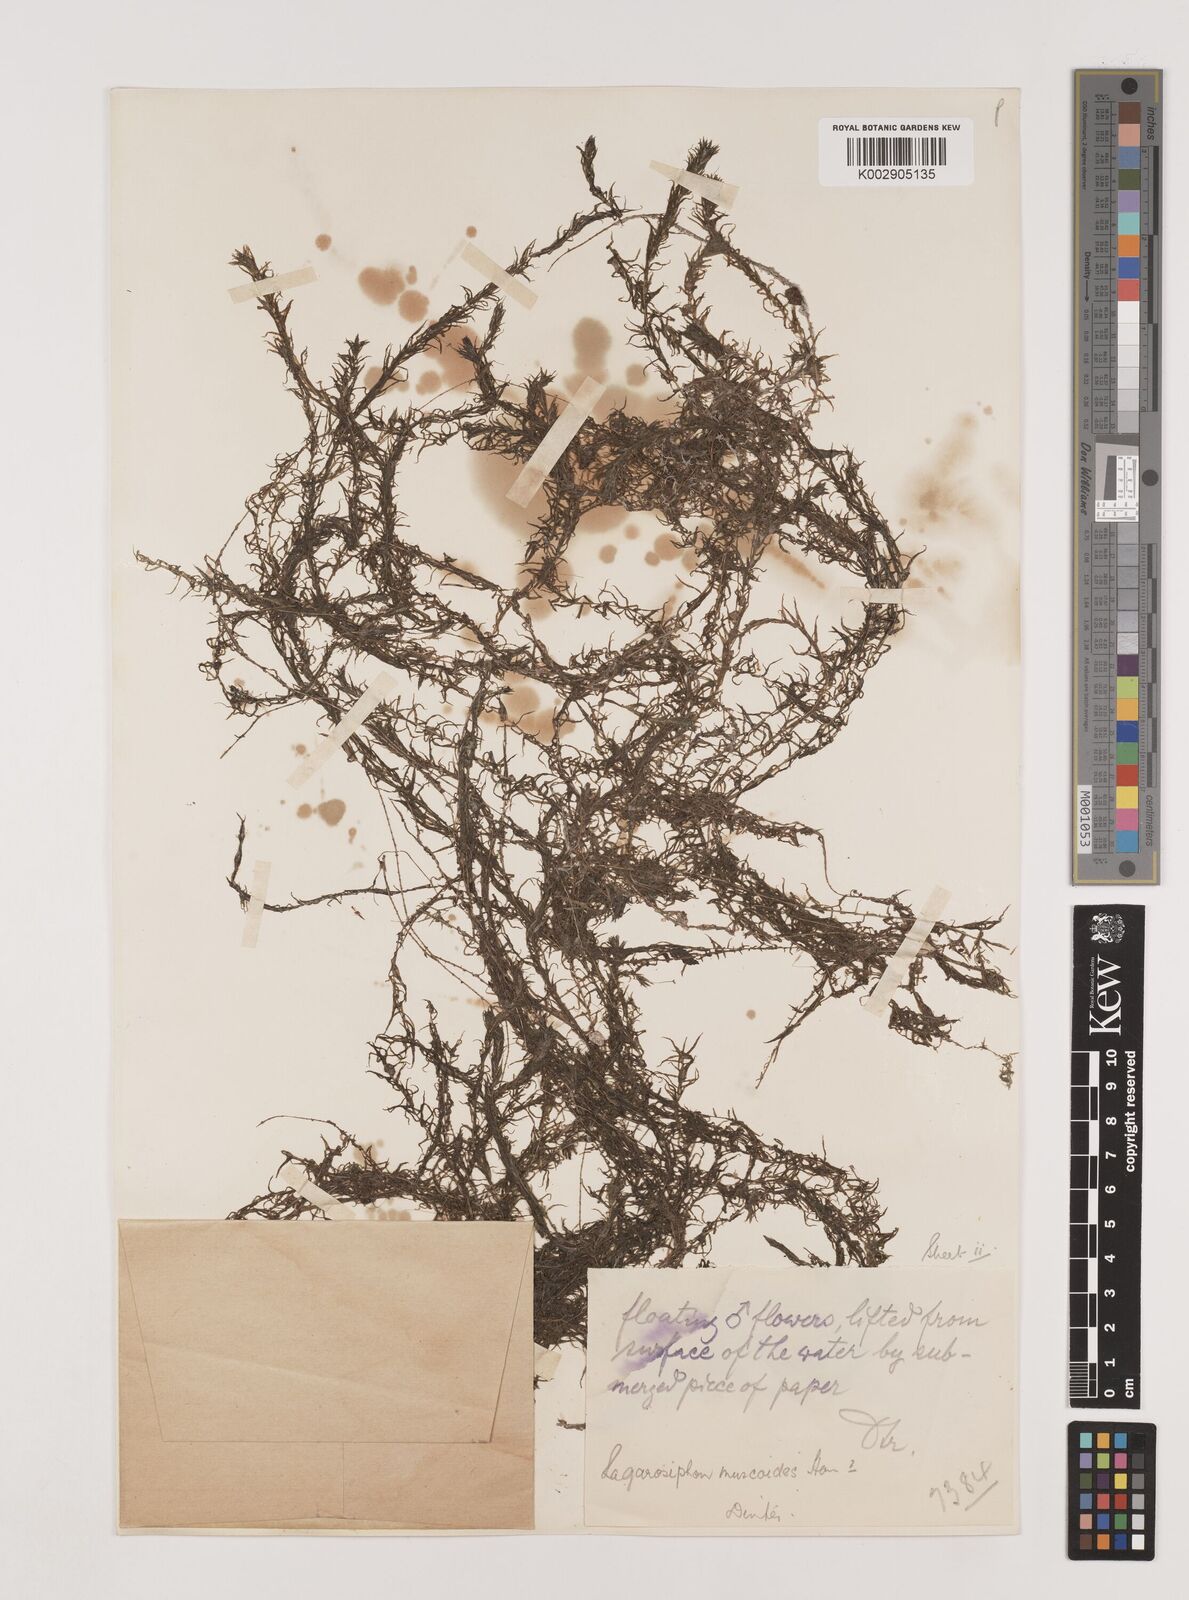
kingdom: Plantae
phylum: Tracheophyta
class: Liliopsida
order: Alismatales
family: Hydrocharitaceae
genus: Lagarosiphon
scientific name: Lagarosiphon muscoides
